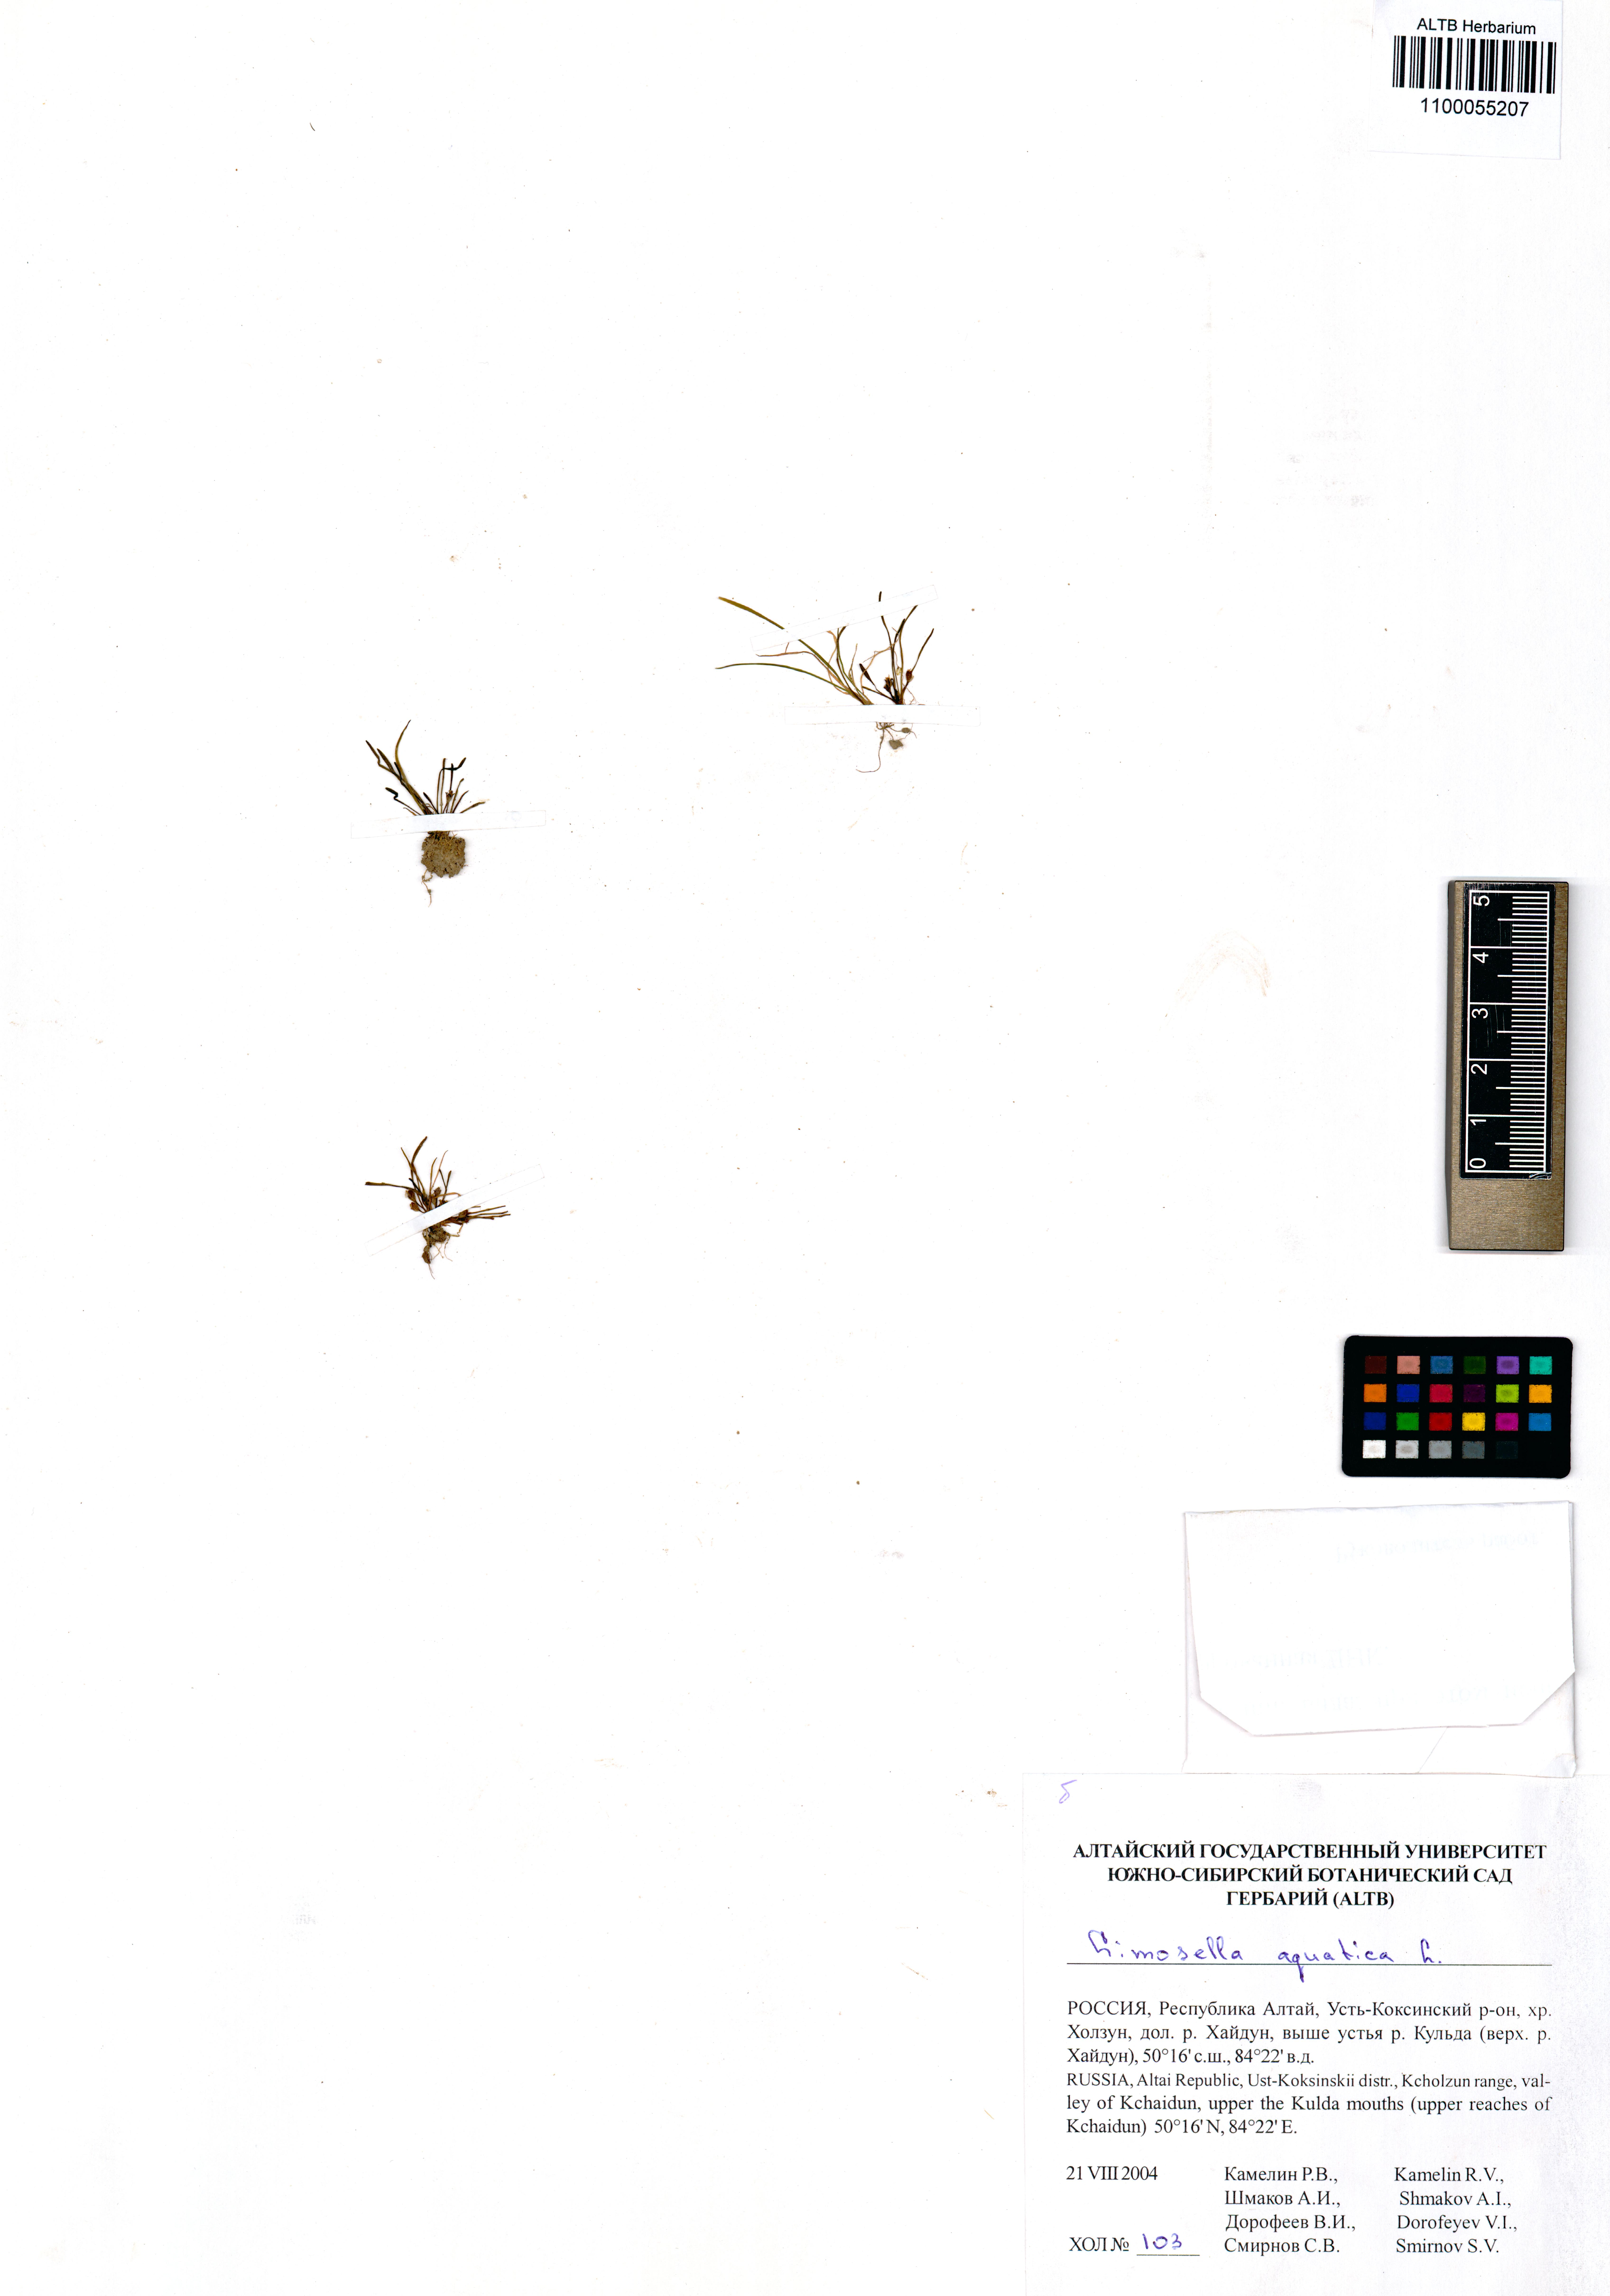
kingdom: Plantae
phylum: Tracheophyta
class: Magnoliopsida
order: Lamiales
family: Scrophulariaceae
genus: Limosella
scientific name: Limosella aquatica
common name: Mudwort
